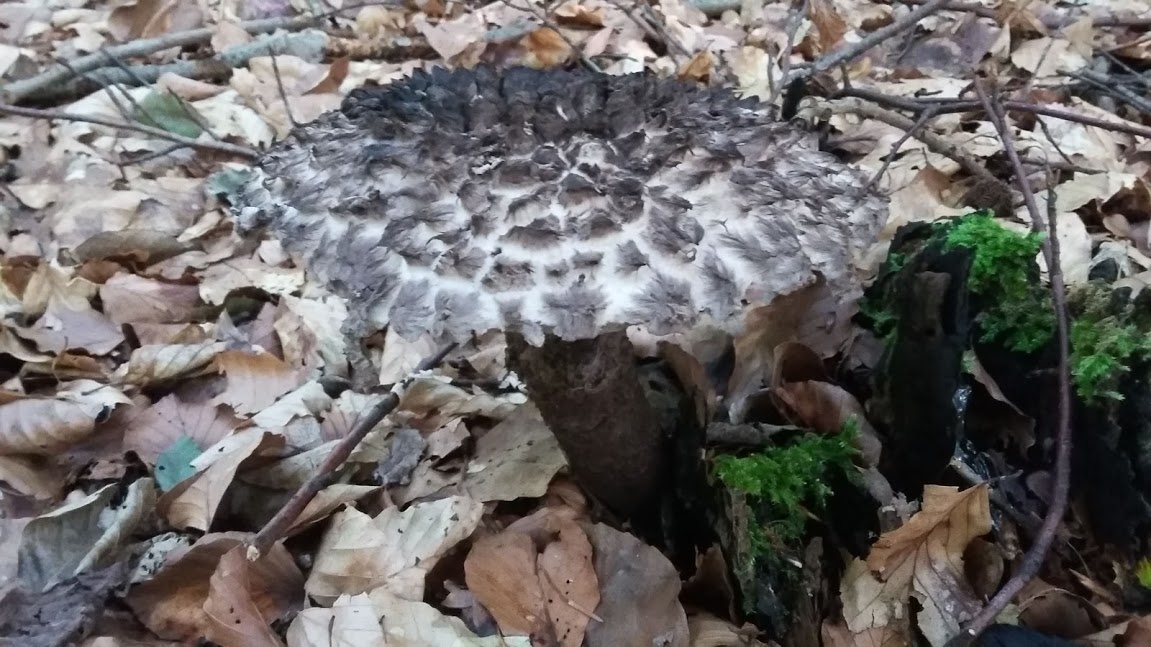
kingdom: Fungi
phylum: Basidiomycota
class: Agaricomycetes
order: Boletales
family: Boletaceae
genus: Strobilomyces
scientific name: Strobilomyces strobilaceus
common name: koglerørhat
